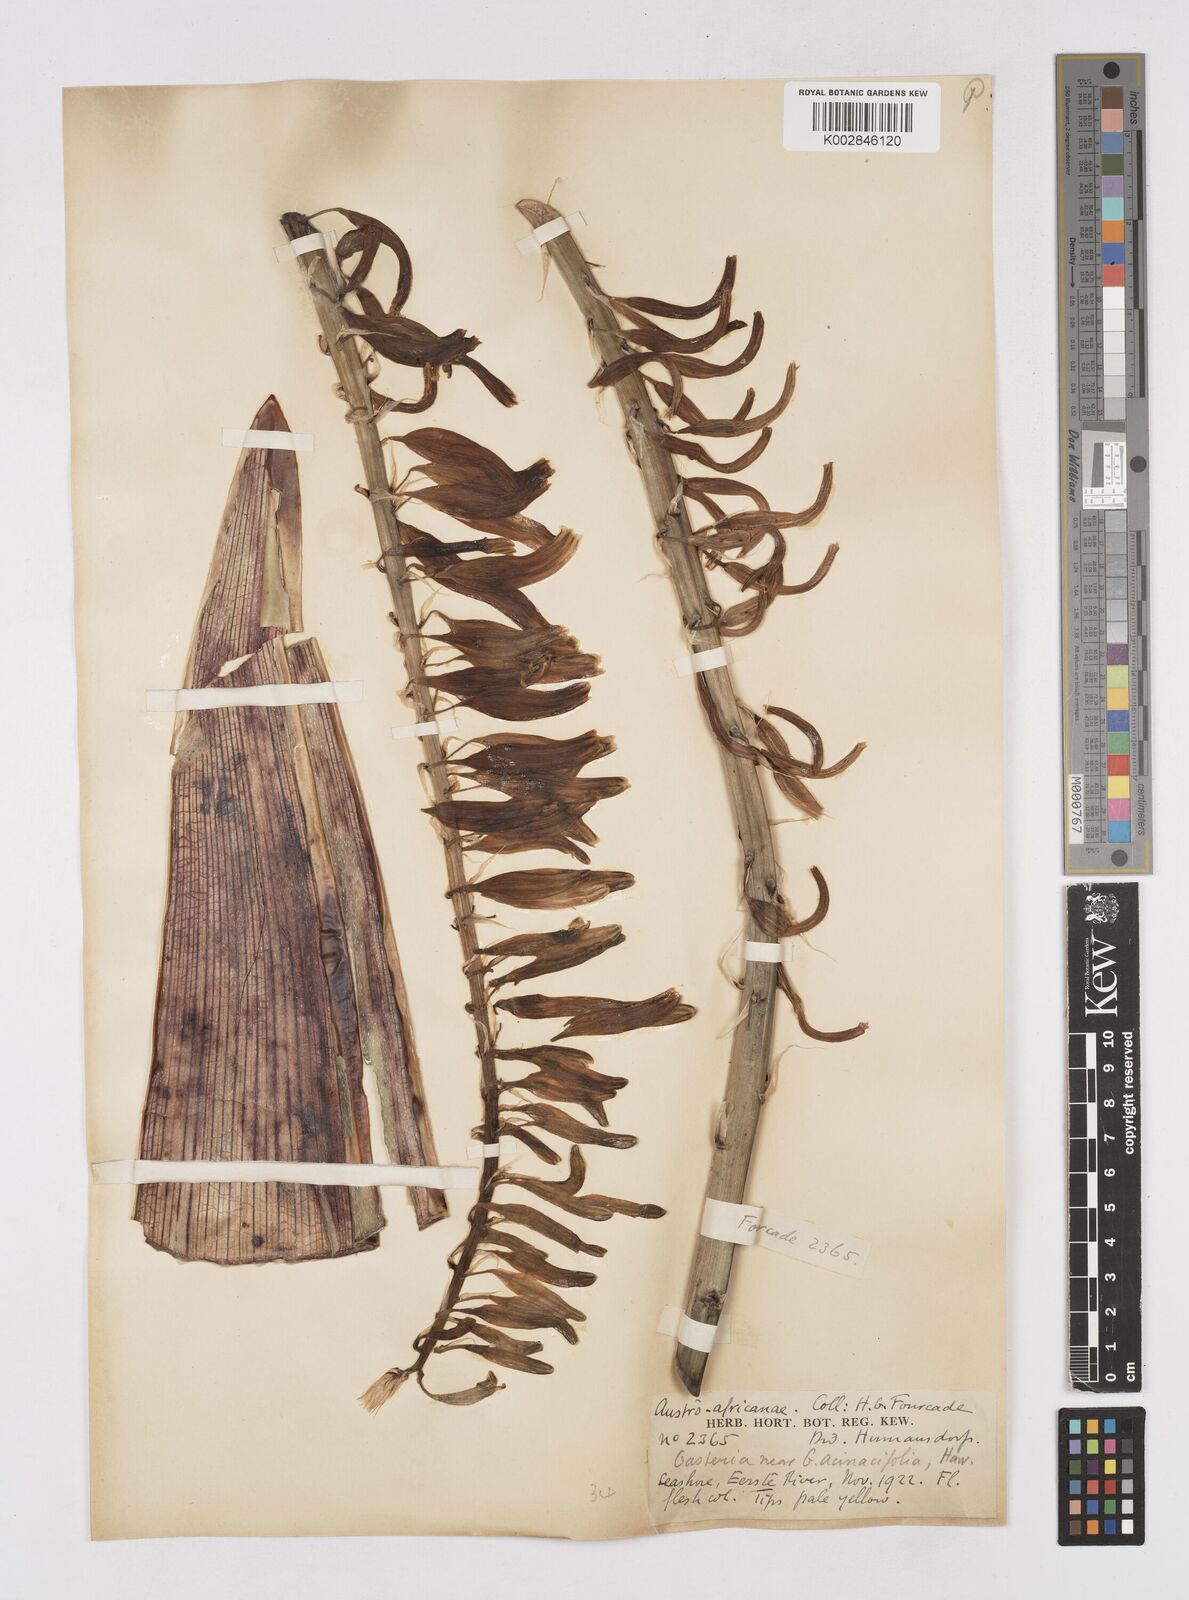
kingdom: Plantae
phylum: Tracheophyta
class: Liliopsida
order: Asparagales
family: Asphodelaceae
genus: Gasteria
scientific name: Gasteria
